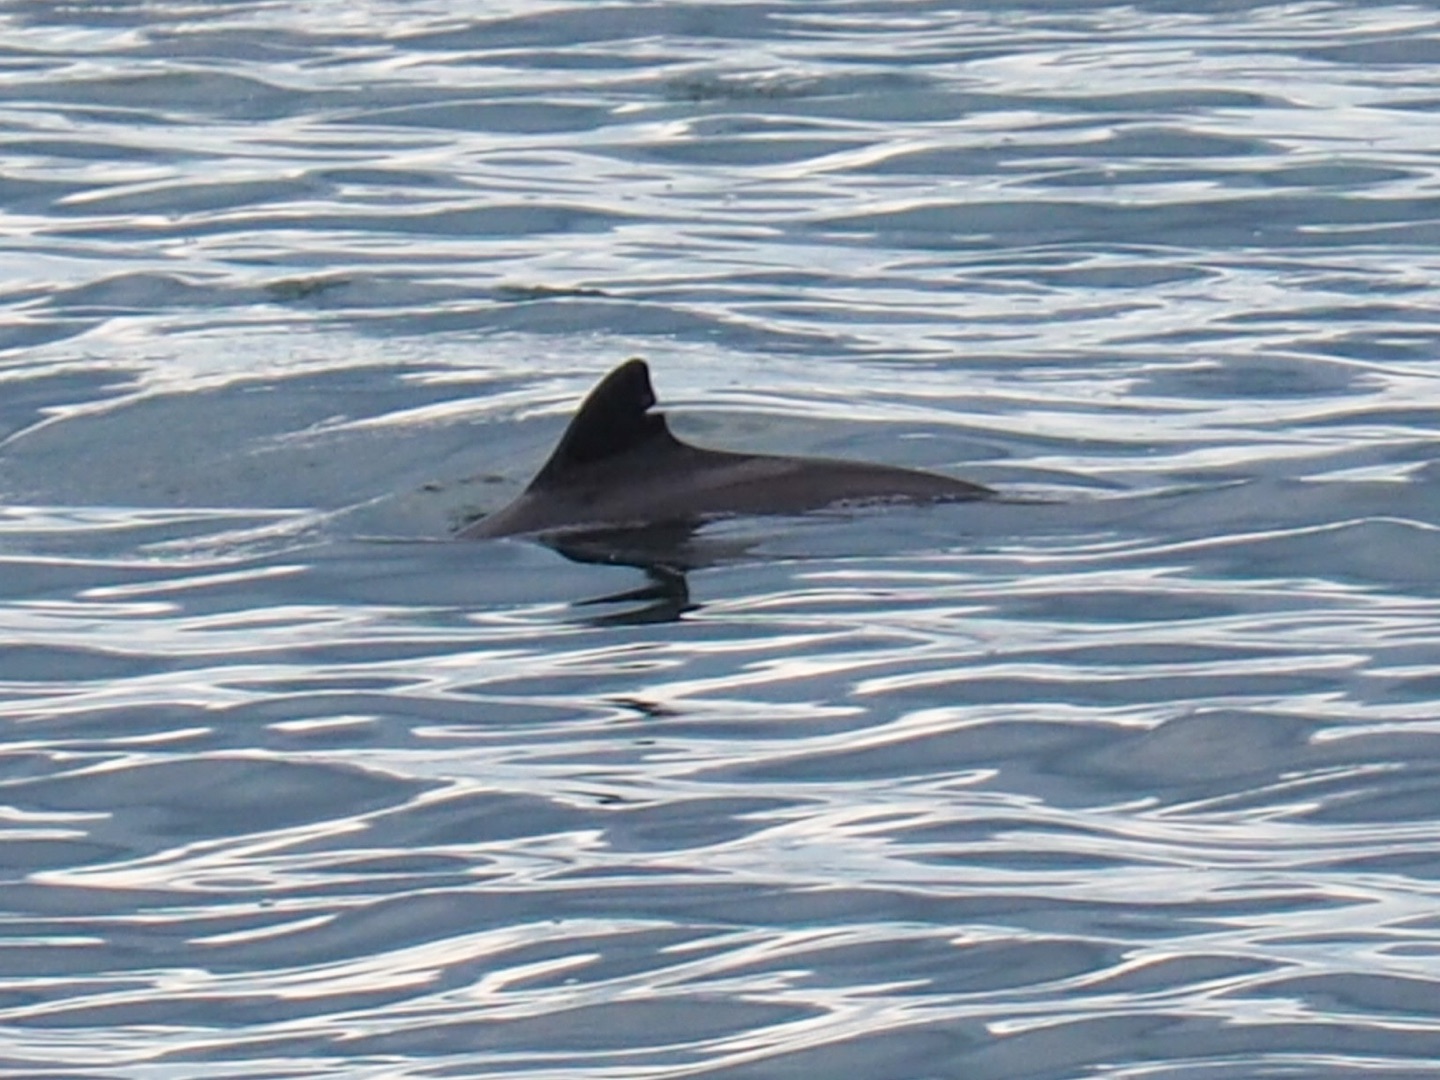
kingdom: Animalia
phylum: Chordata
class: Mammalia
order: Cetacea
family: Phocoenidae
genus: Phocoena
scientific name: Phocoena phocoena
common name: Marsvin
